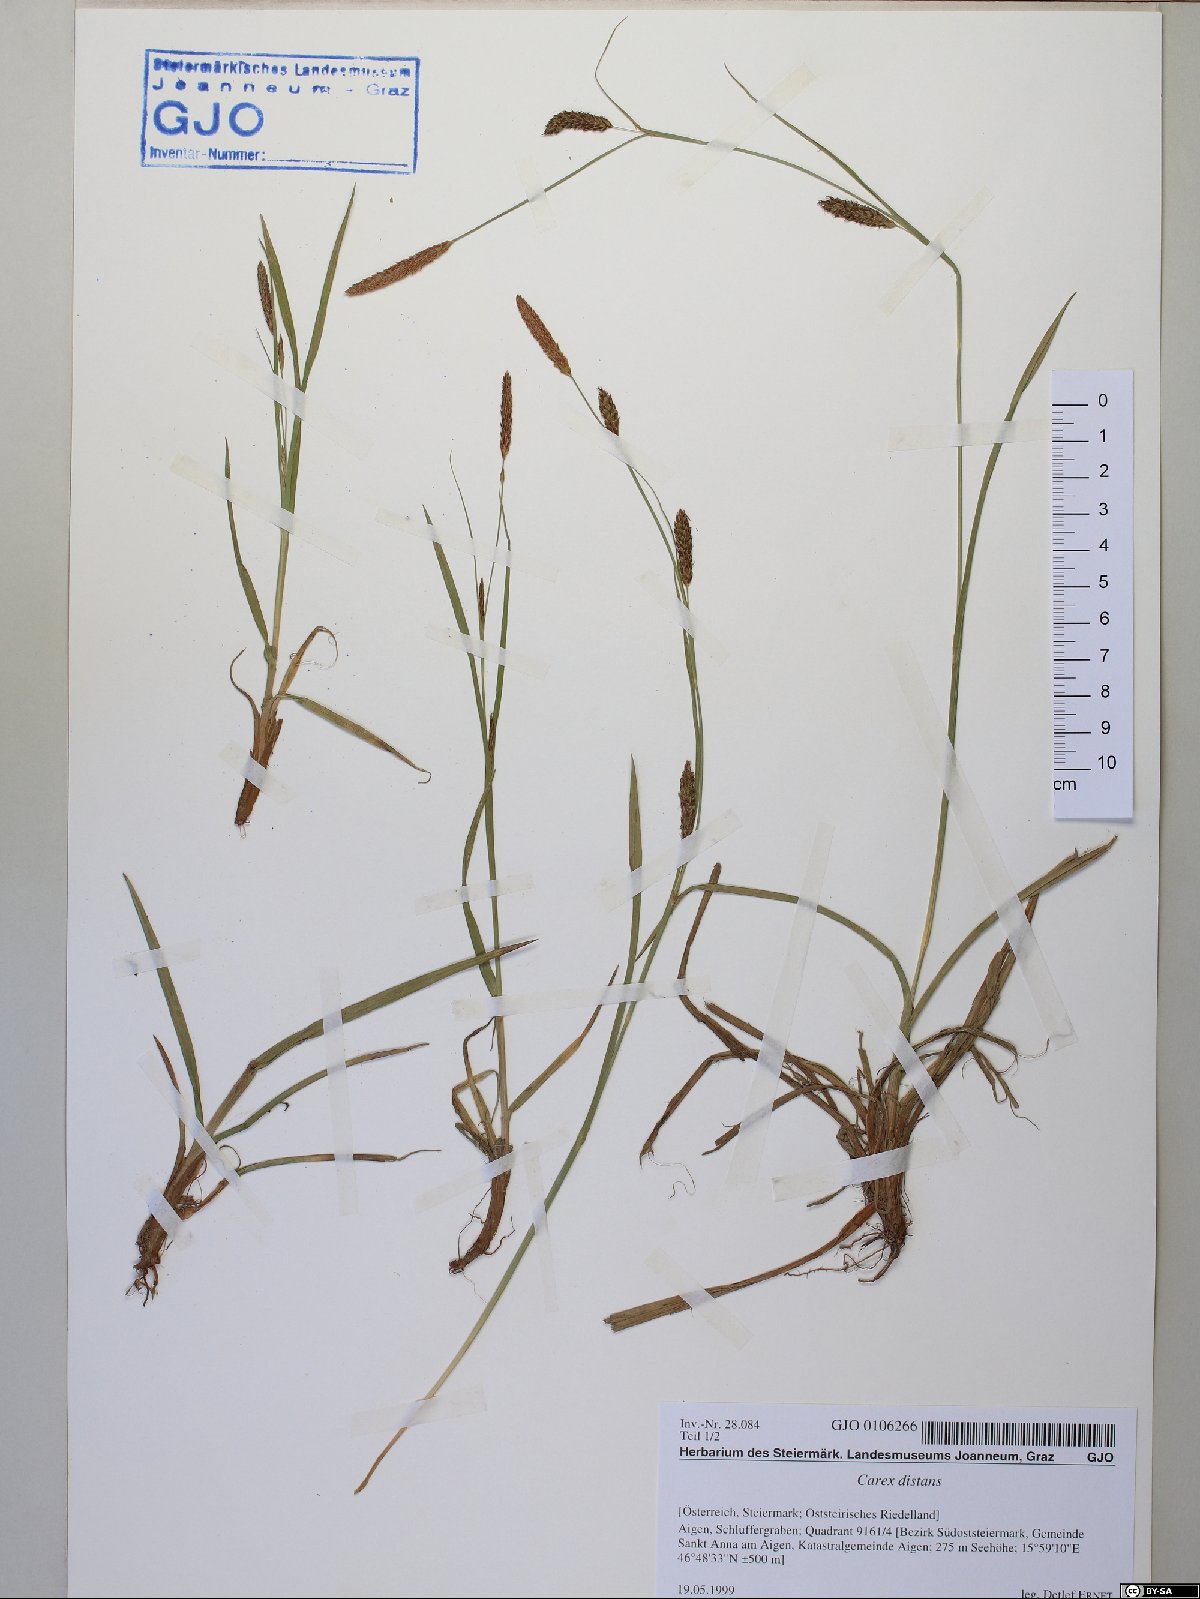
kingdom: Plantae
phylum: Tracheophyta
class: Liliopsida
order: Poales
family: Cyperaceae
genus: Carex
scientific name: Carex distans
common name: Distant sedge
